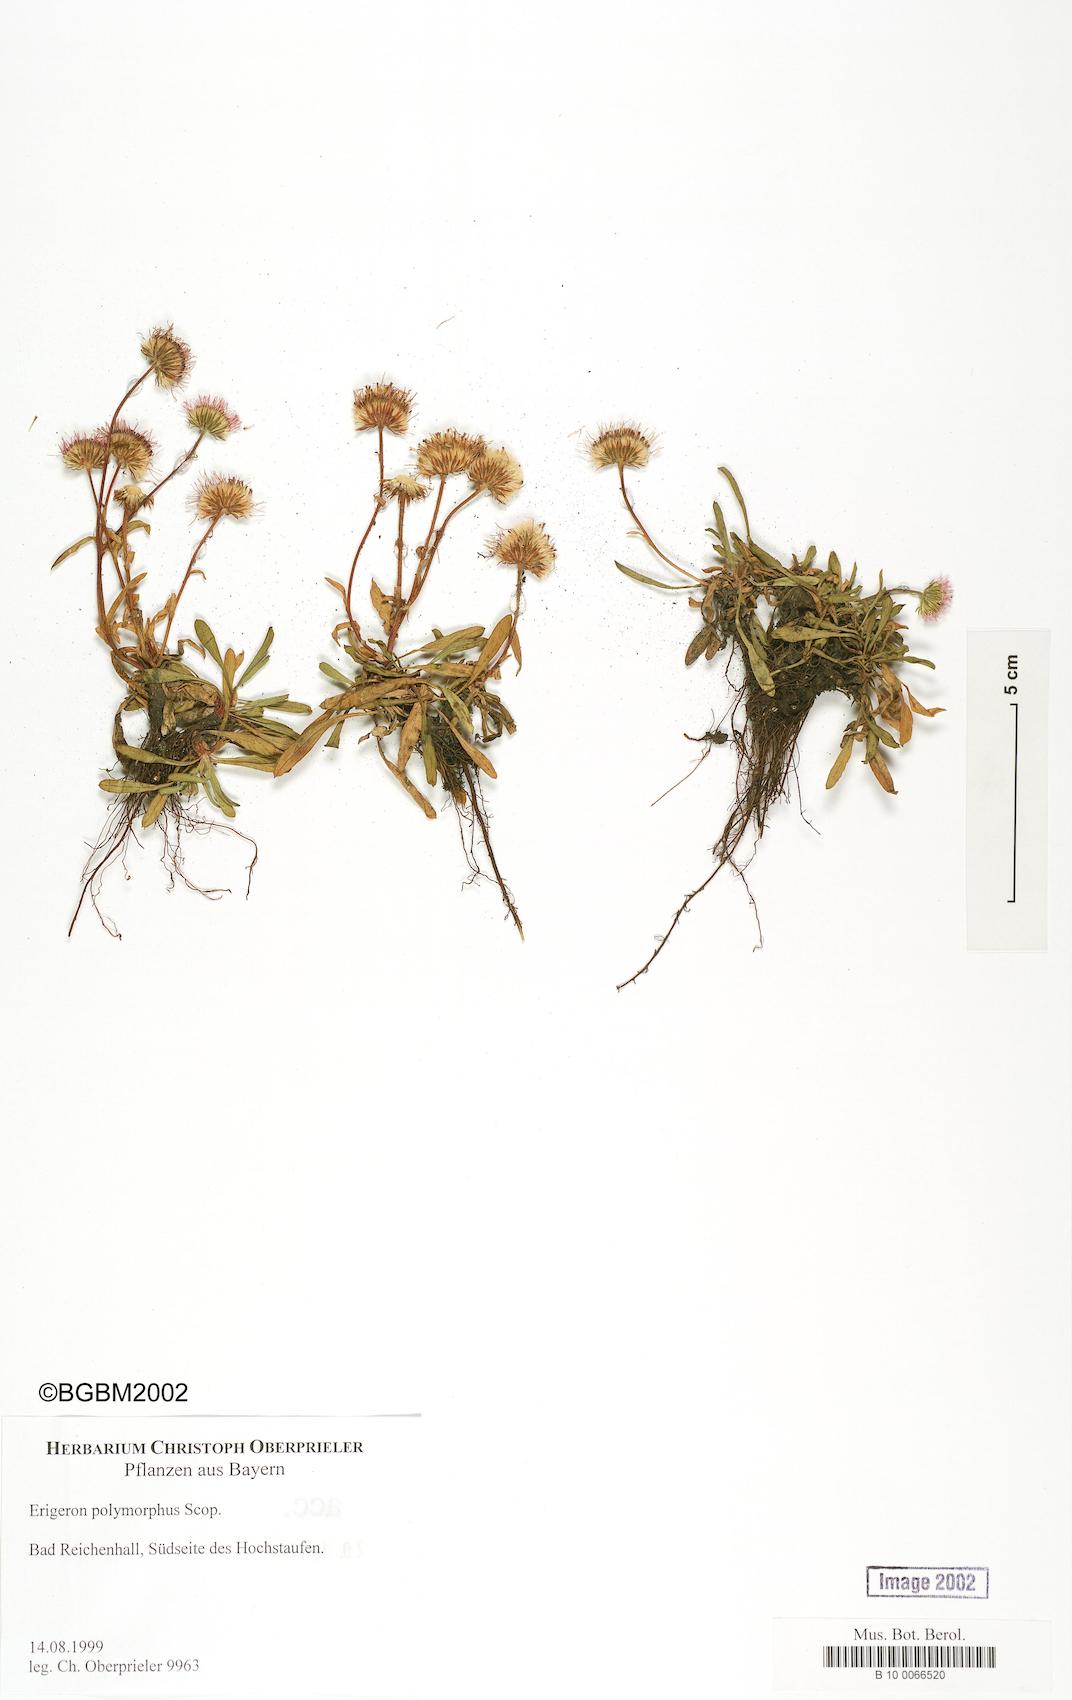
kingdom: Plantae
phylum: Tracheophyta
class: Magnoliopsida
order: Asterales
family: Asteraceae
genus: Erigeron
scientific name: Erigeron alpinus
